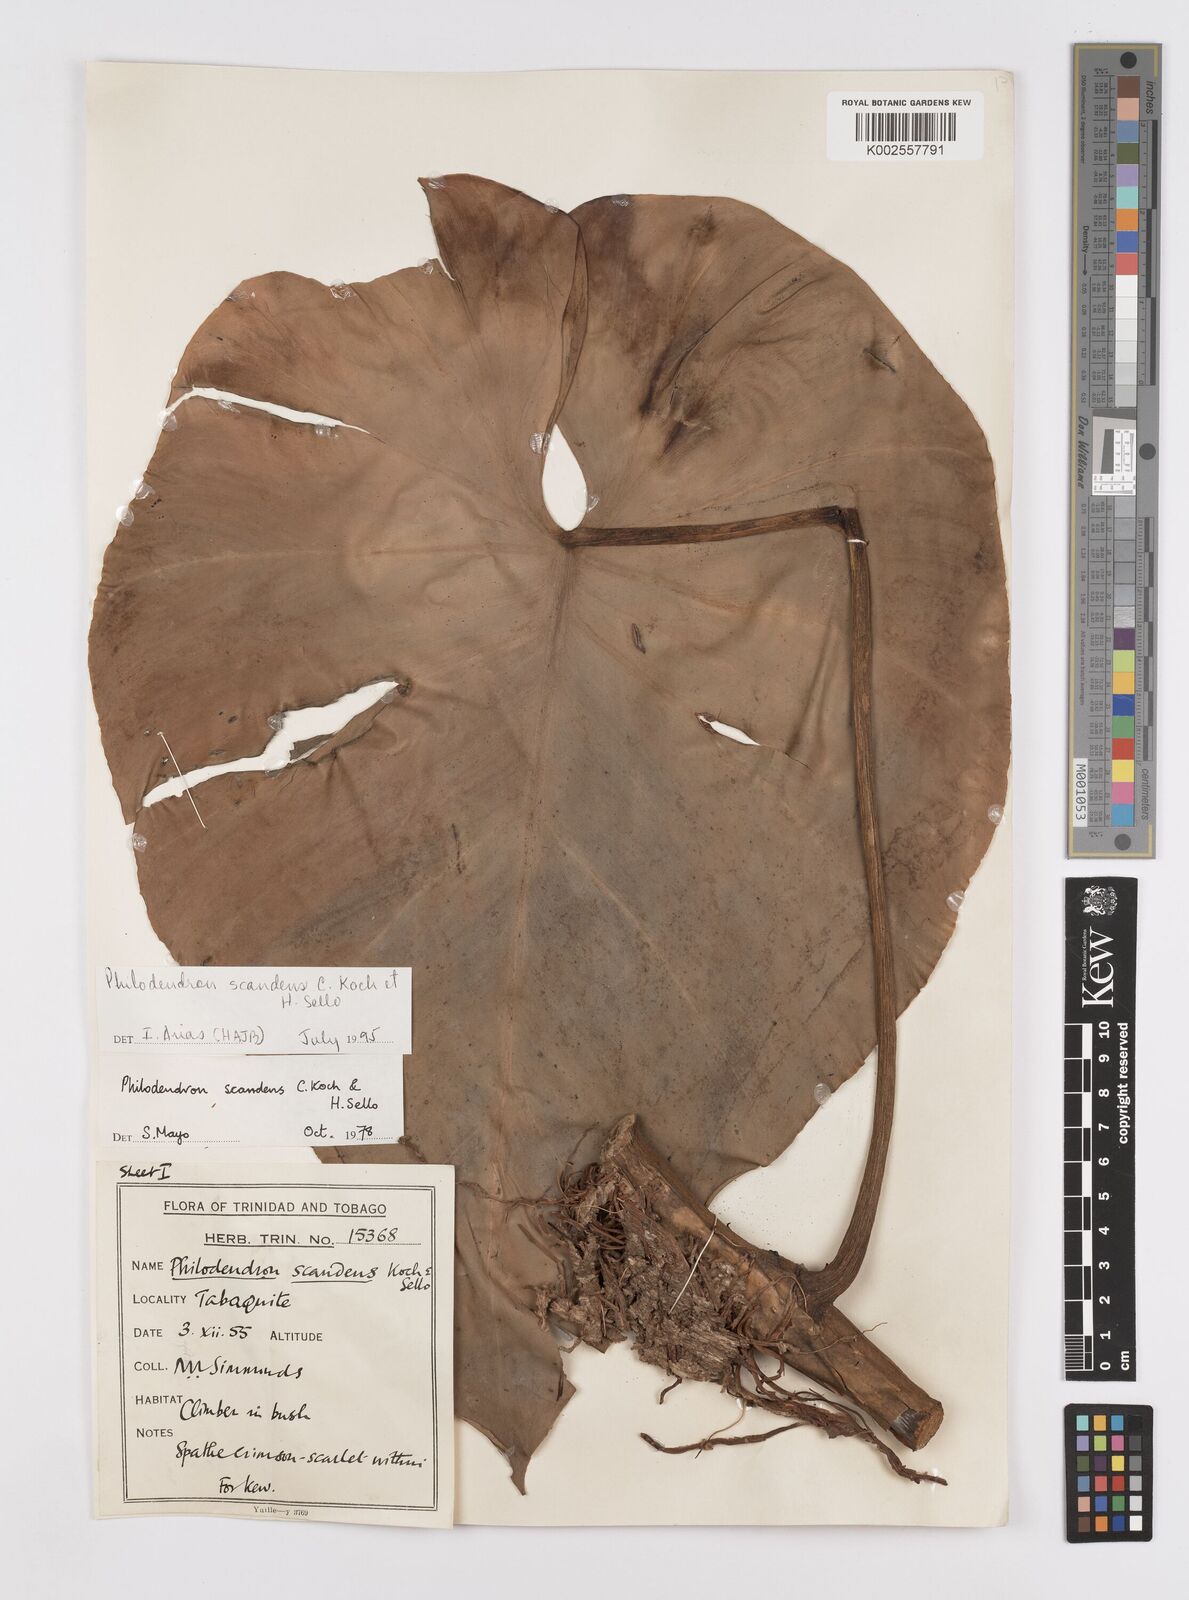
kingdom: Plantae
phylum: Tracheophyta
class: Liliopsida
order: Alismatales
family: Araceae
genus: Philodendron
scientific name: Philodendron hederaceum
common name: Vilevine
